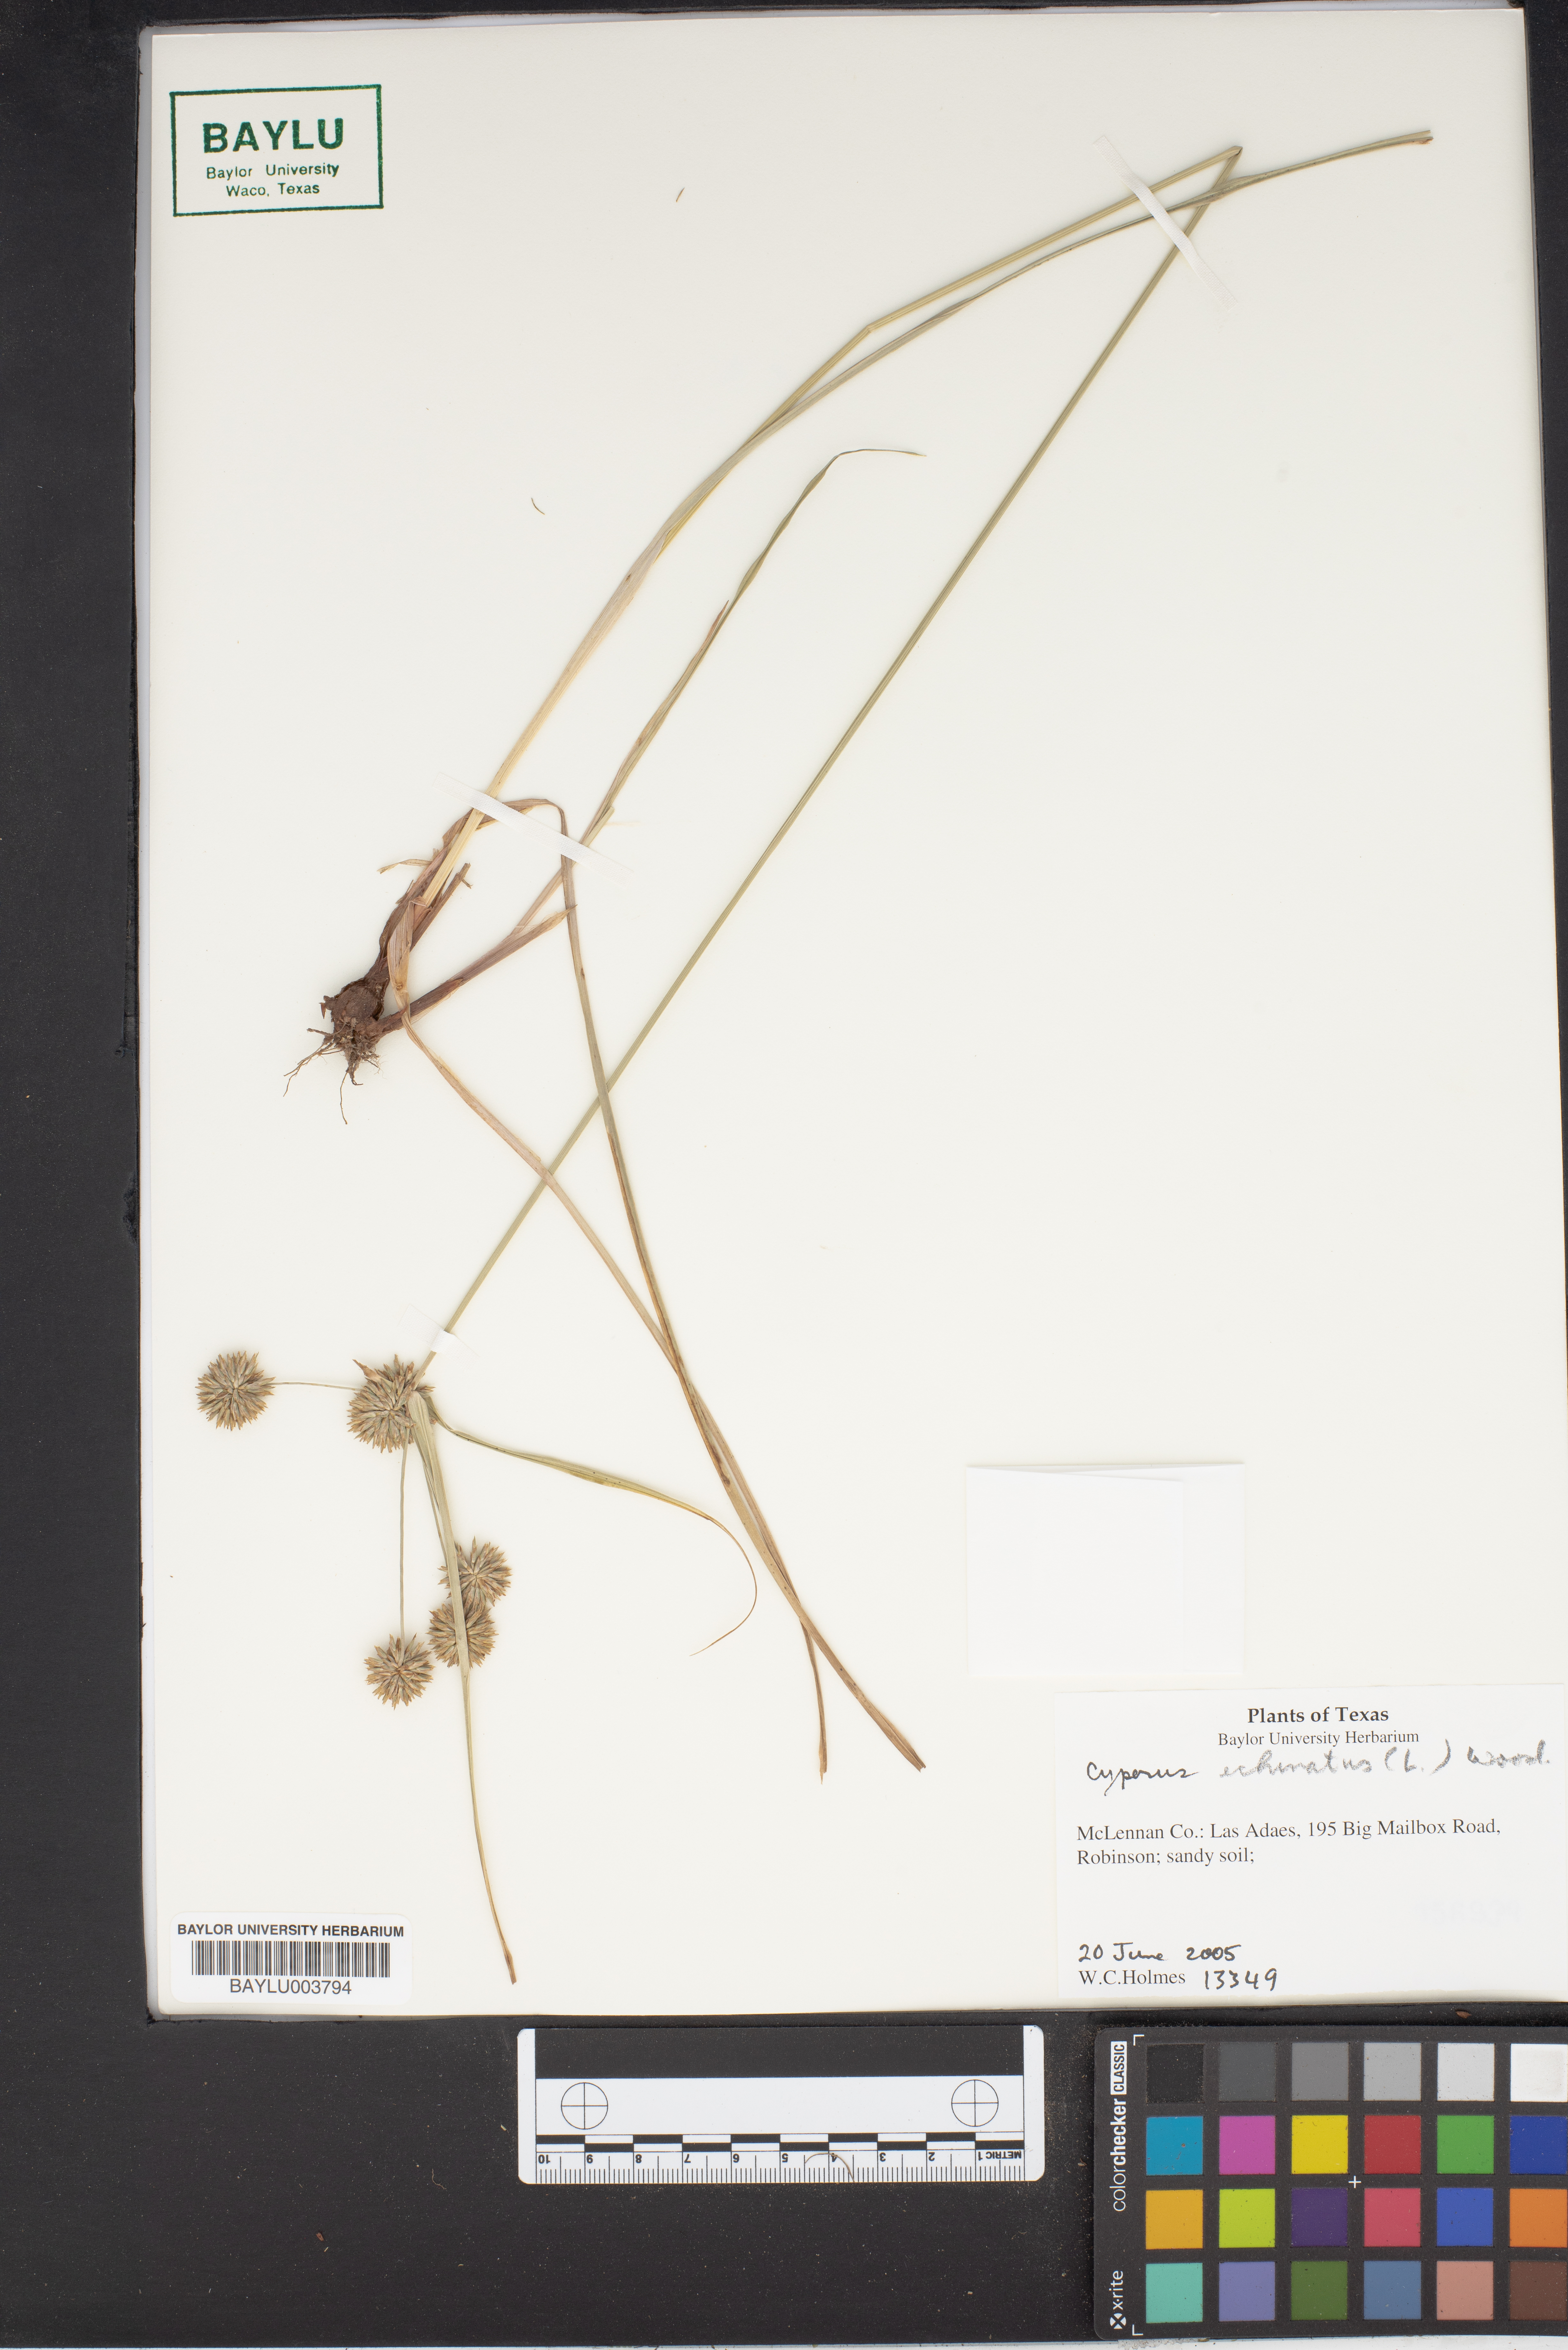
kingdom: Plantae
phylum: Tracheophyta
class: Liliopsida
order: Poales
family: Cyperaceae
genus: Cyperus
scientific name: Cyperus echinatus
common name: Teasel sedge
